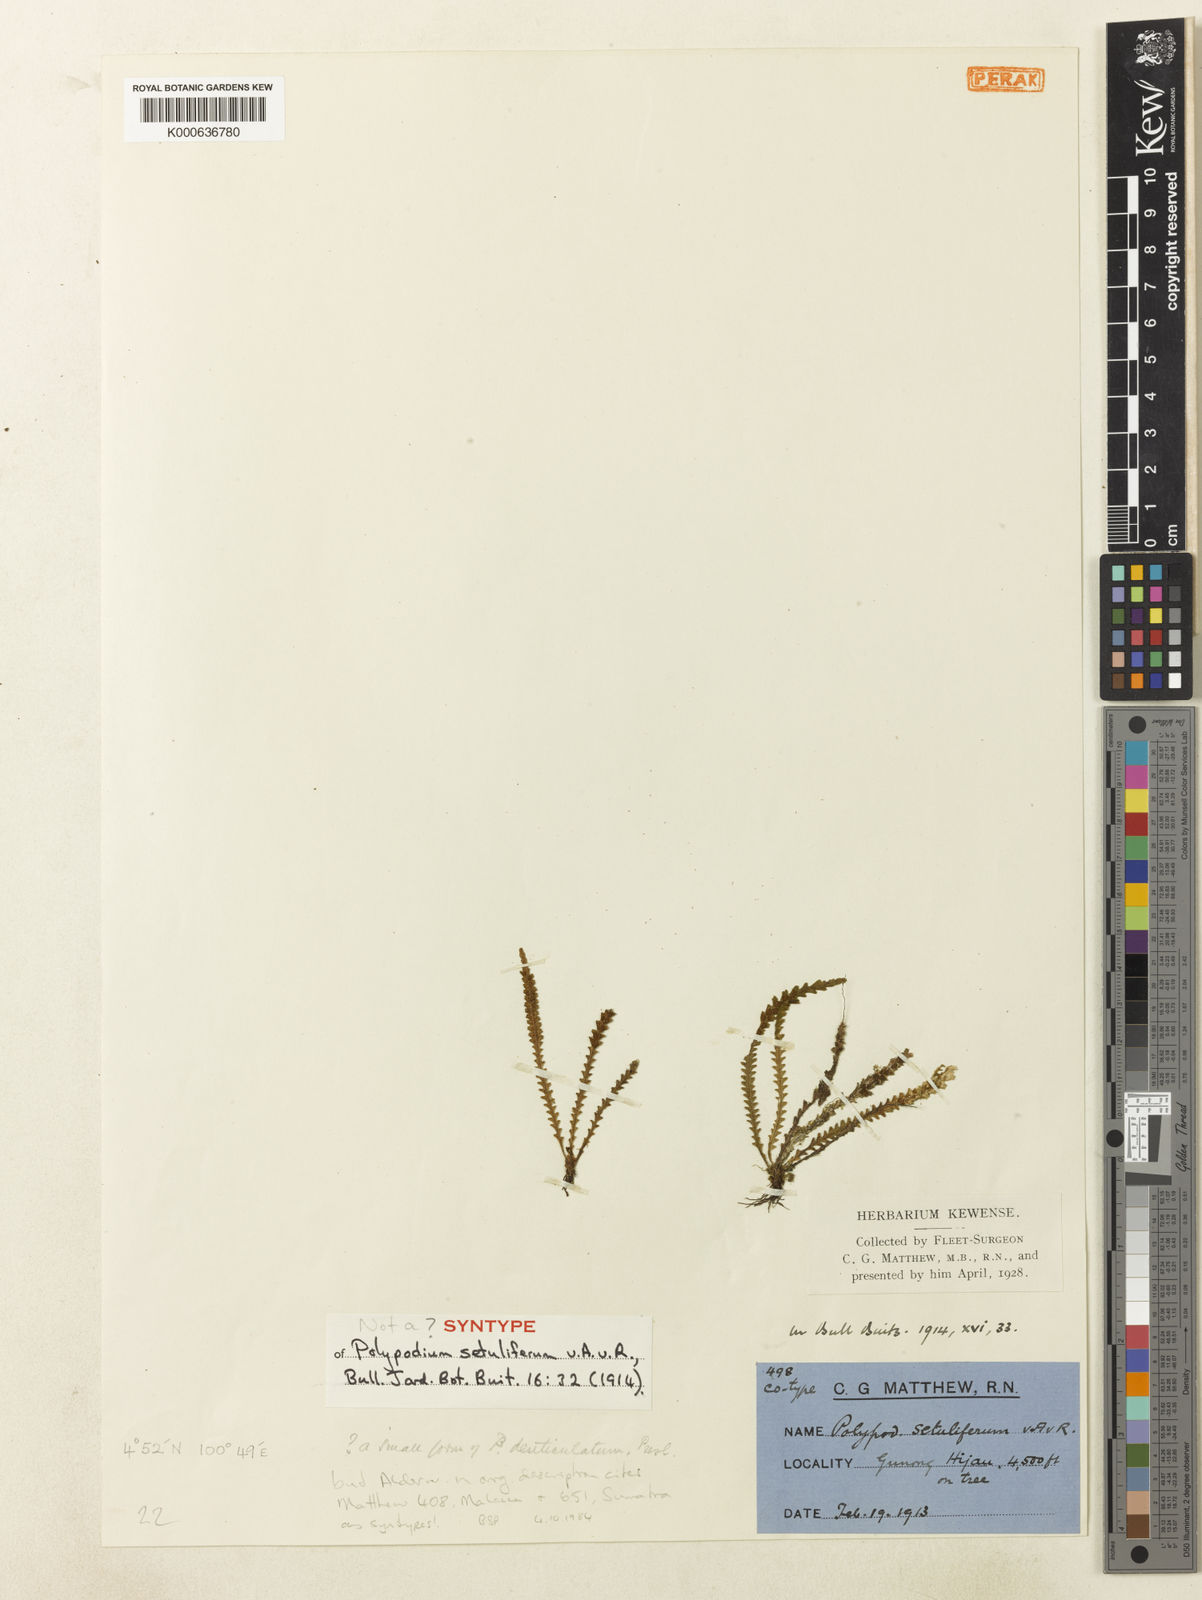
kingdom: Plantae
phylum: Tracheophyta
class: Polypodiopsida
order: Polypodiales
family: Polypodiaceae
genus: Oreogrammitis
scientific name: Oreogrammitis setulifera
